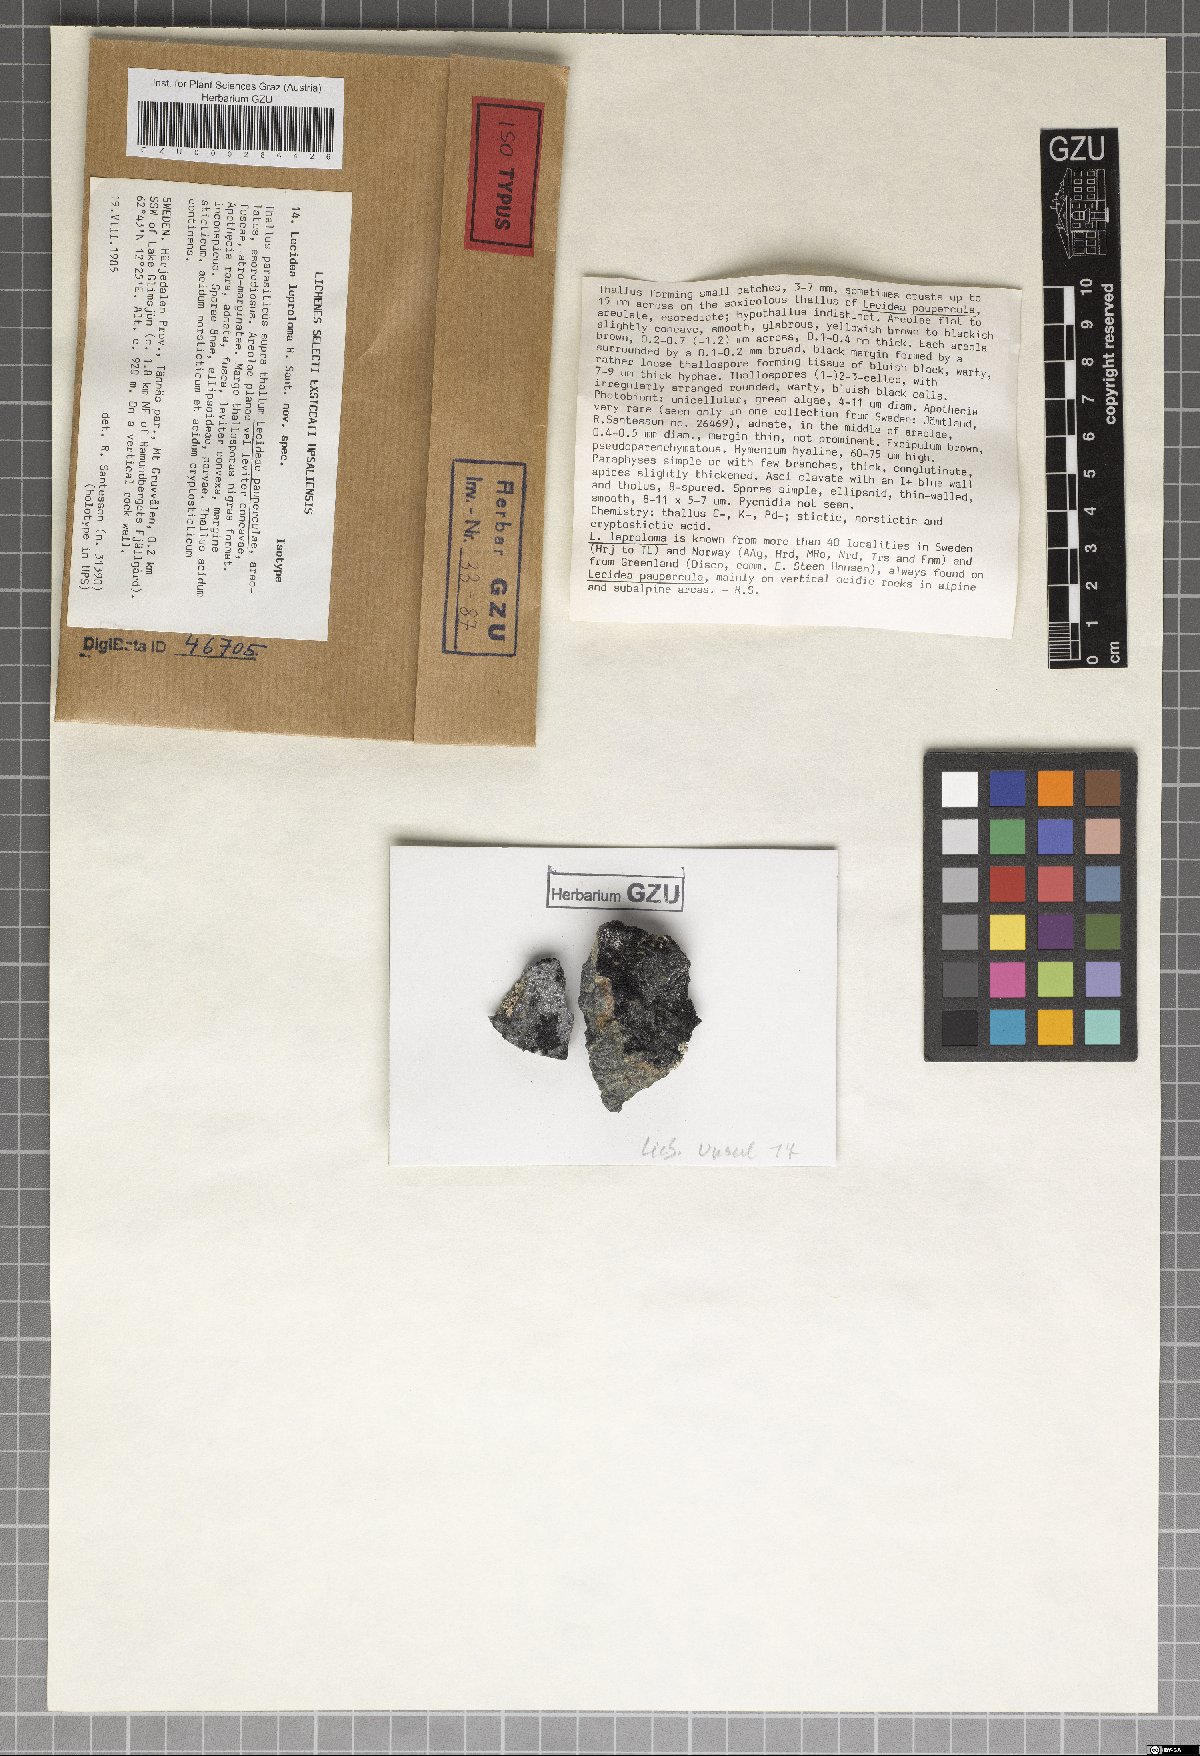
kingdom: Fungi
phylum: Ascomycota
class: Lecanoromycetes
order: Lecanorales
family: Parmeliaceae
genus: Protoparmelia
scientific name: Protoparmelia leproloma
